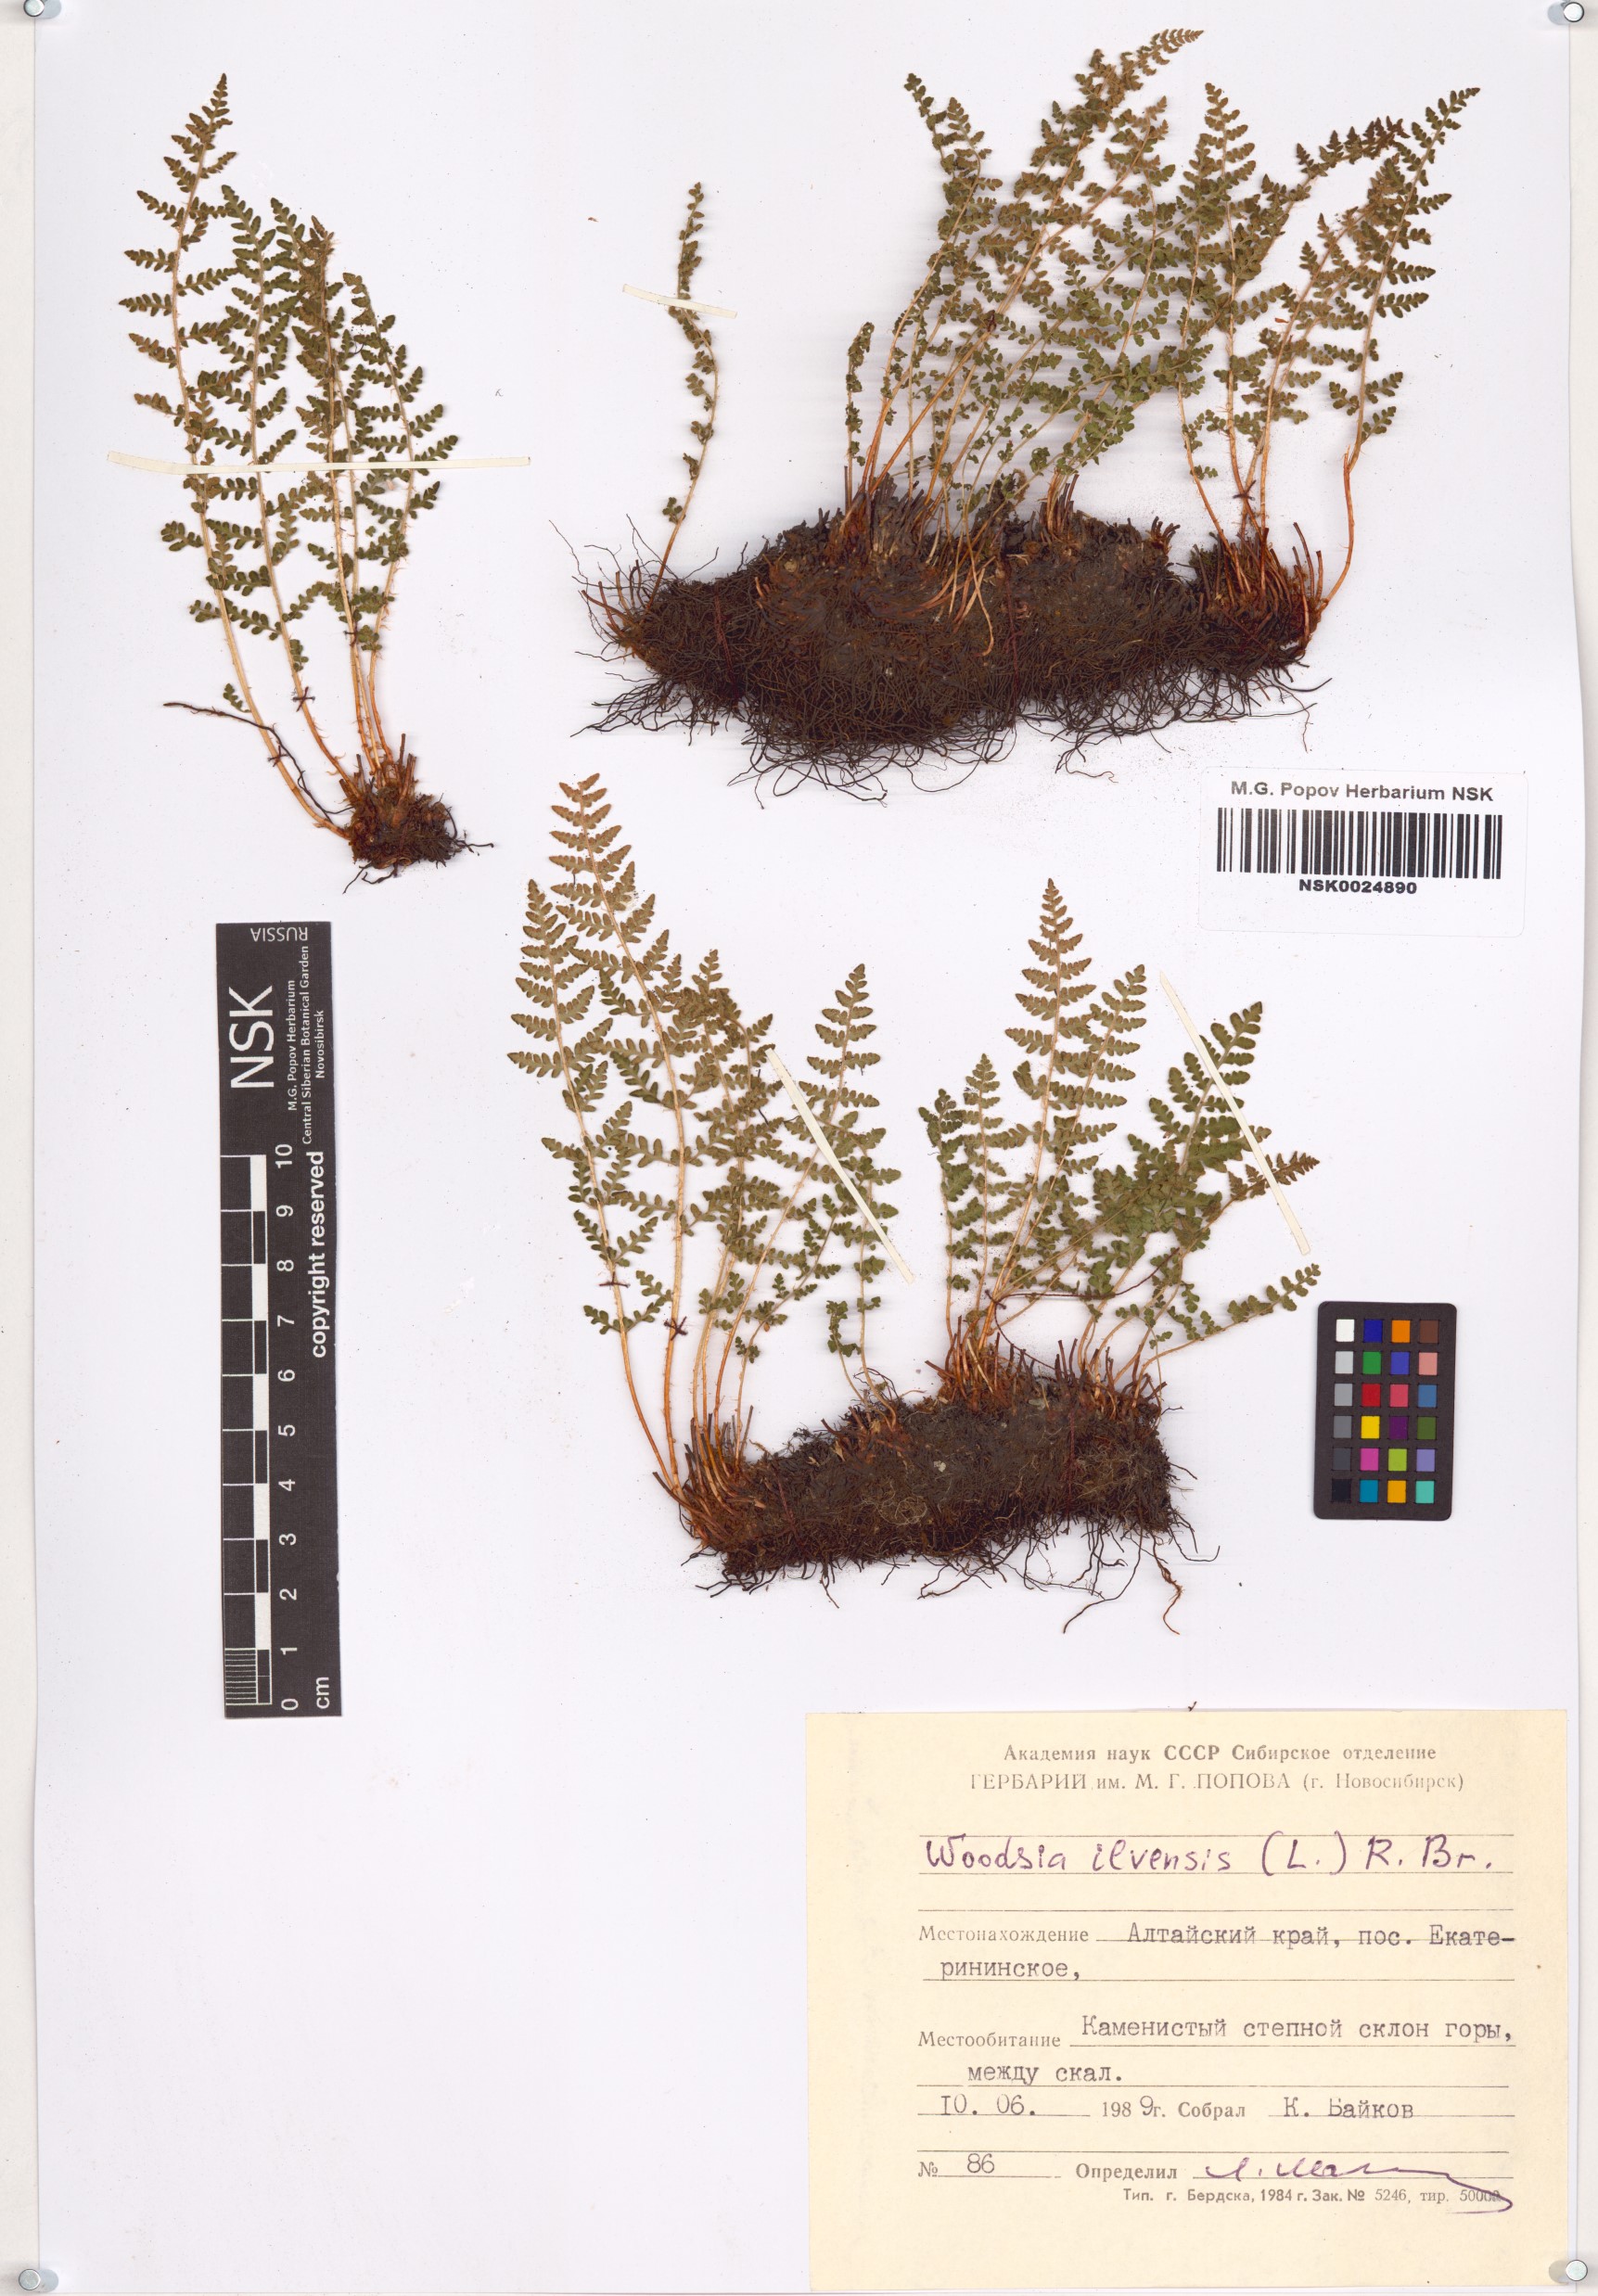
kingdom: Plantae
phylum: Tracheophyta
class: Polypodiopsida
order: Polypodiales
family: Woodsiaceae
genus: Woodsia
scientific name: Woodsia ilvensis
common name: Fragrant woodsia
